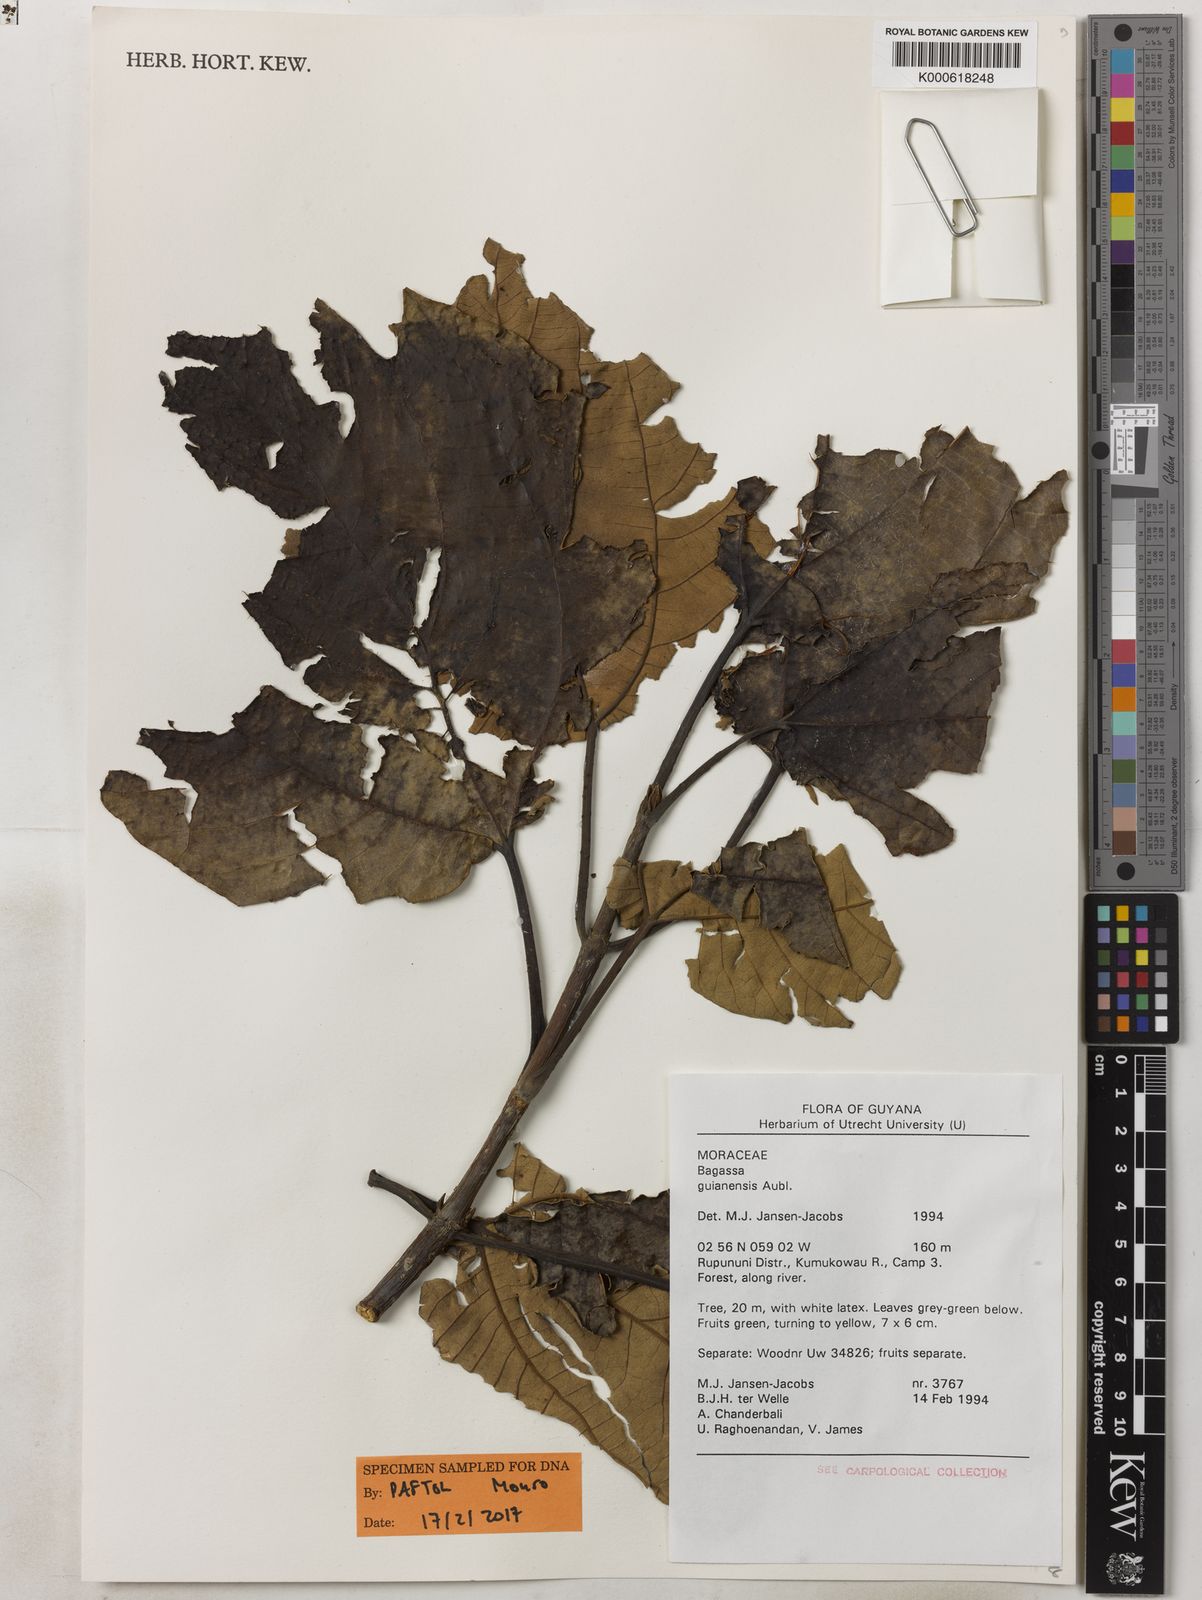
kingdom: Plantae
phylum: Tracheophyta
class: Magnoliopsida
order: Rosales
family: Moraceae
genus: Bagassa
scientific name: Bagassa guianensis
